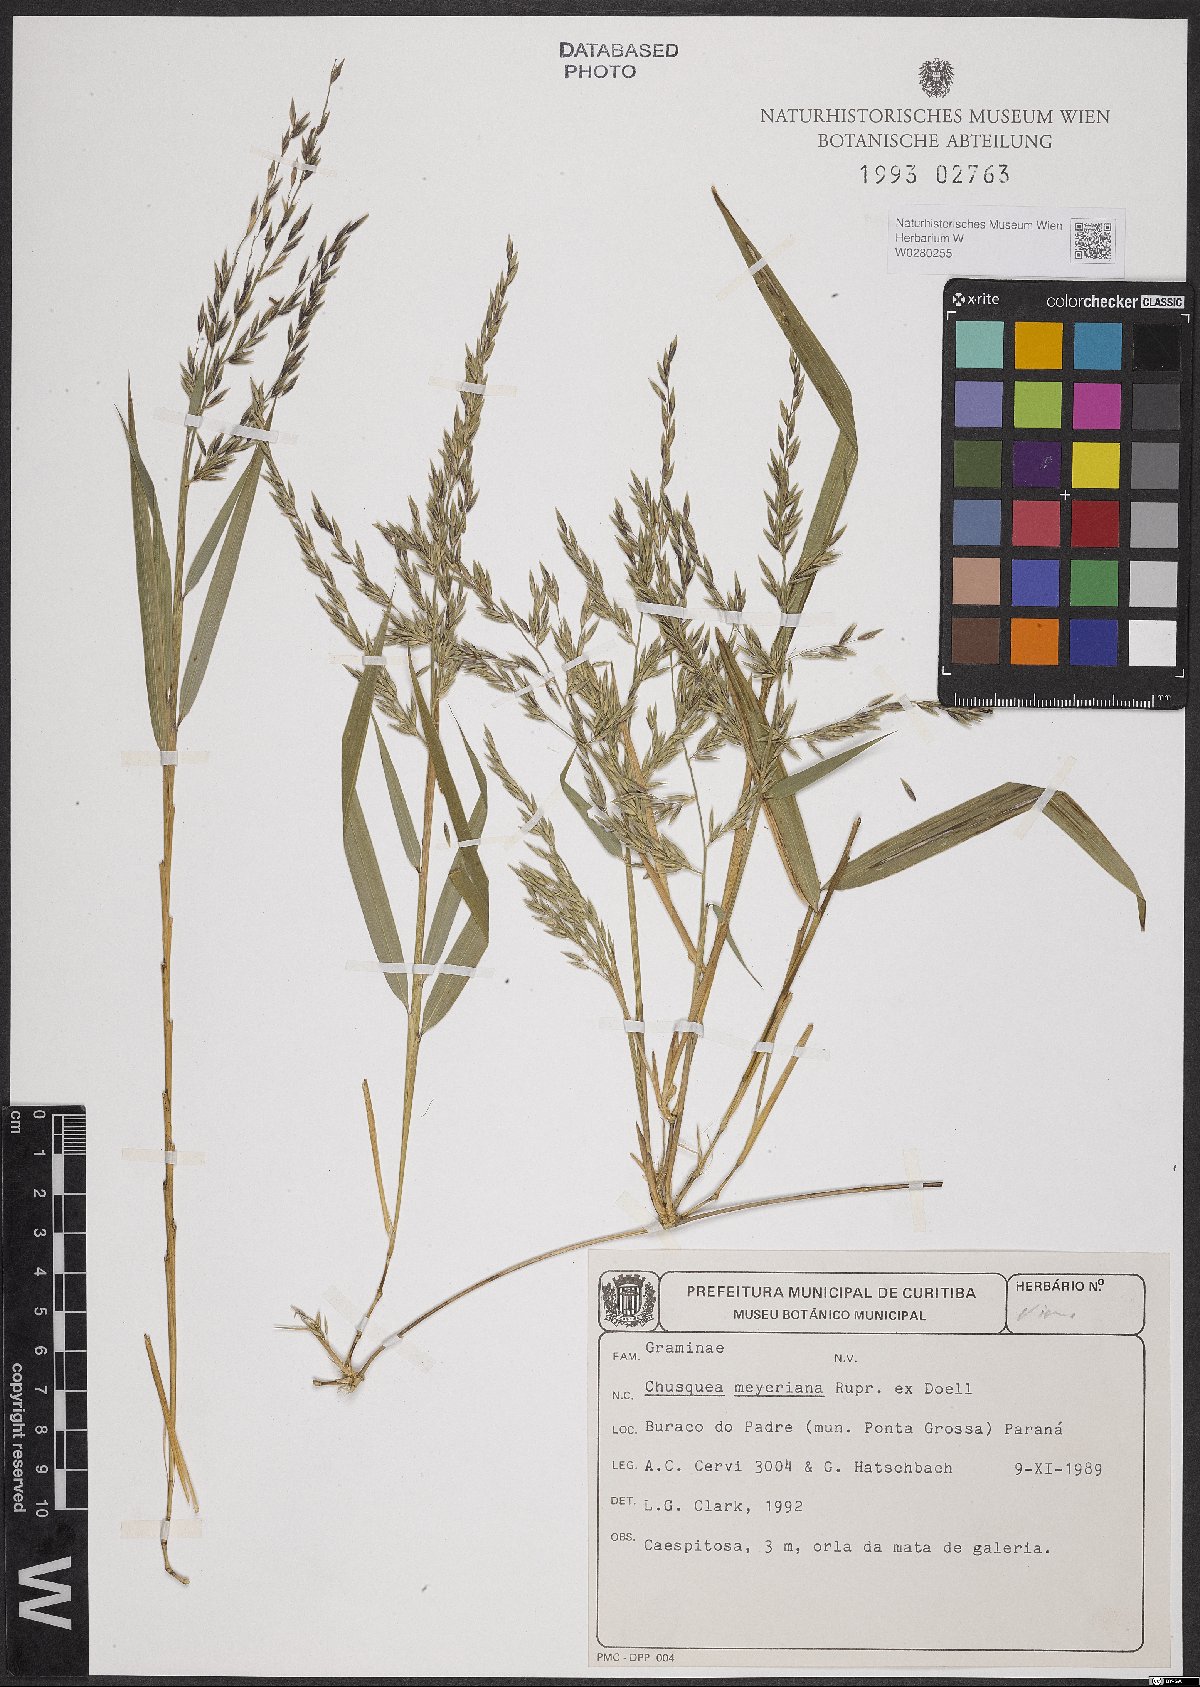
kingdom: Plantae
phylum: Tracheophyta
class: Liliopsida
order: Poales
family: Poaceae
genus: Chusquea
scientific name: Chusquea meyeriana
